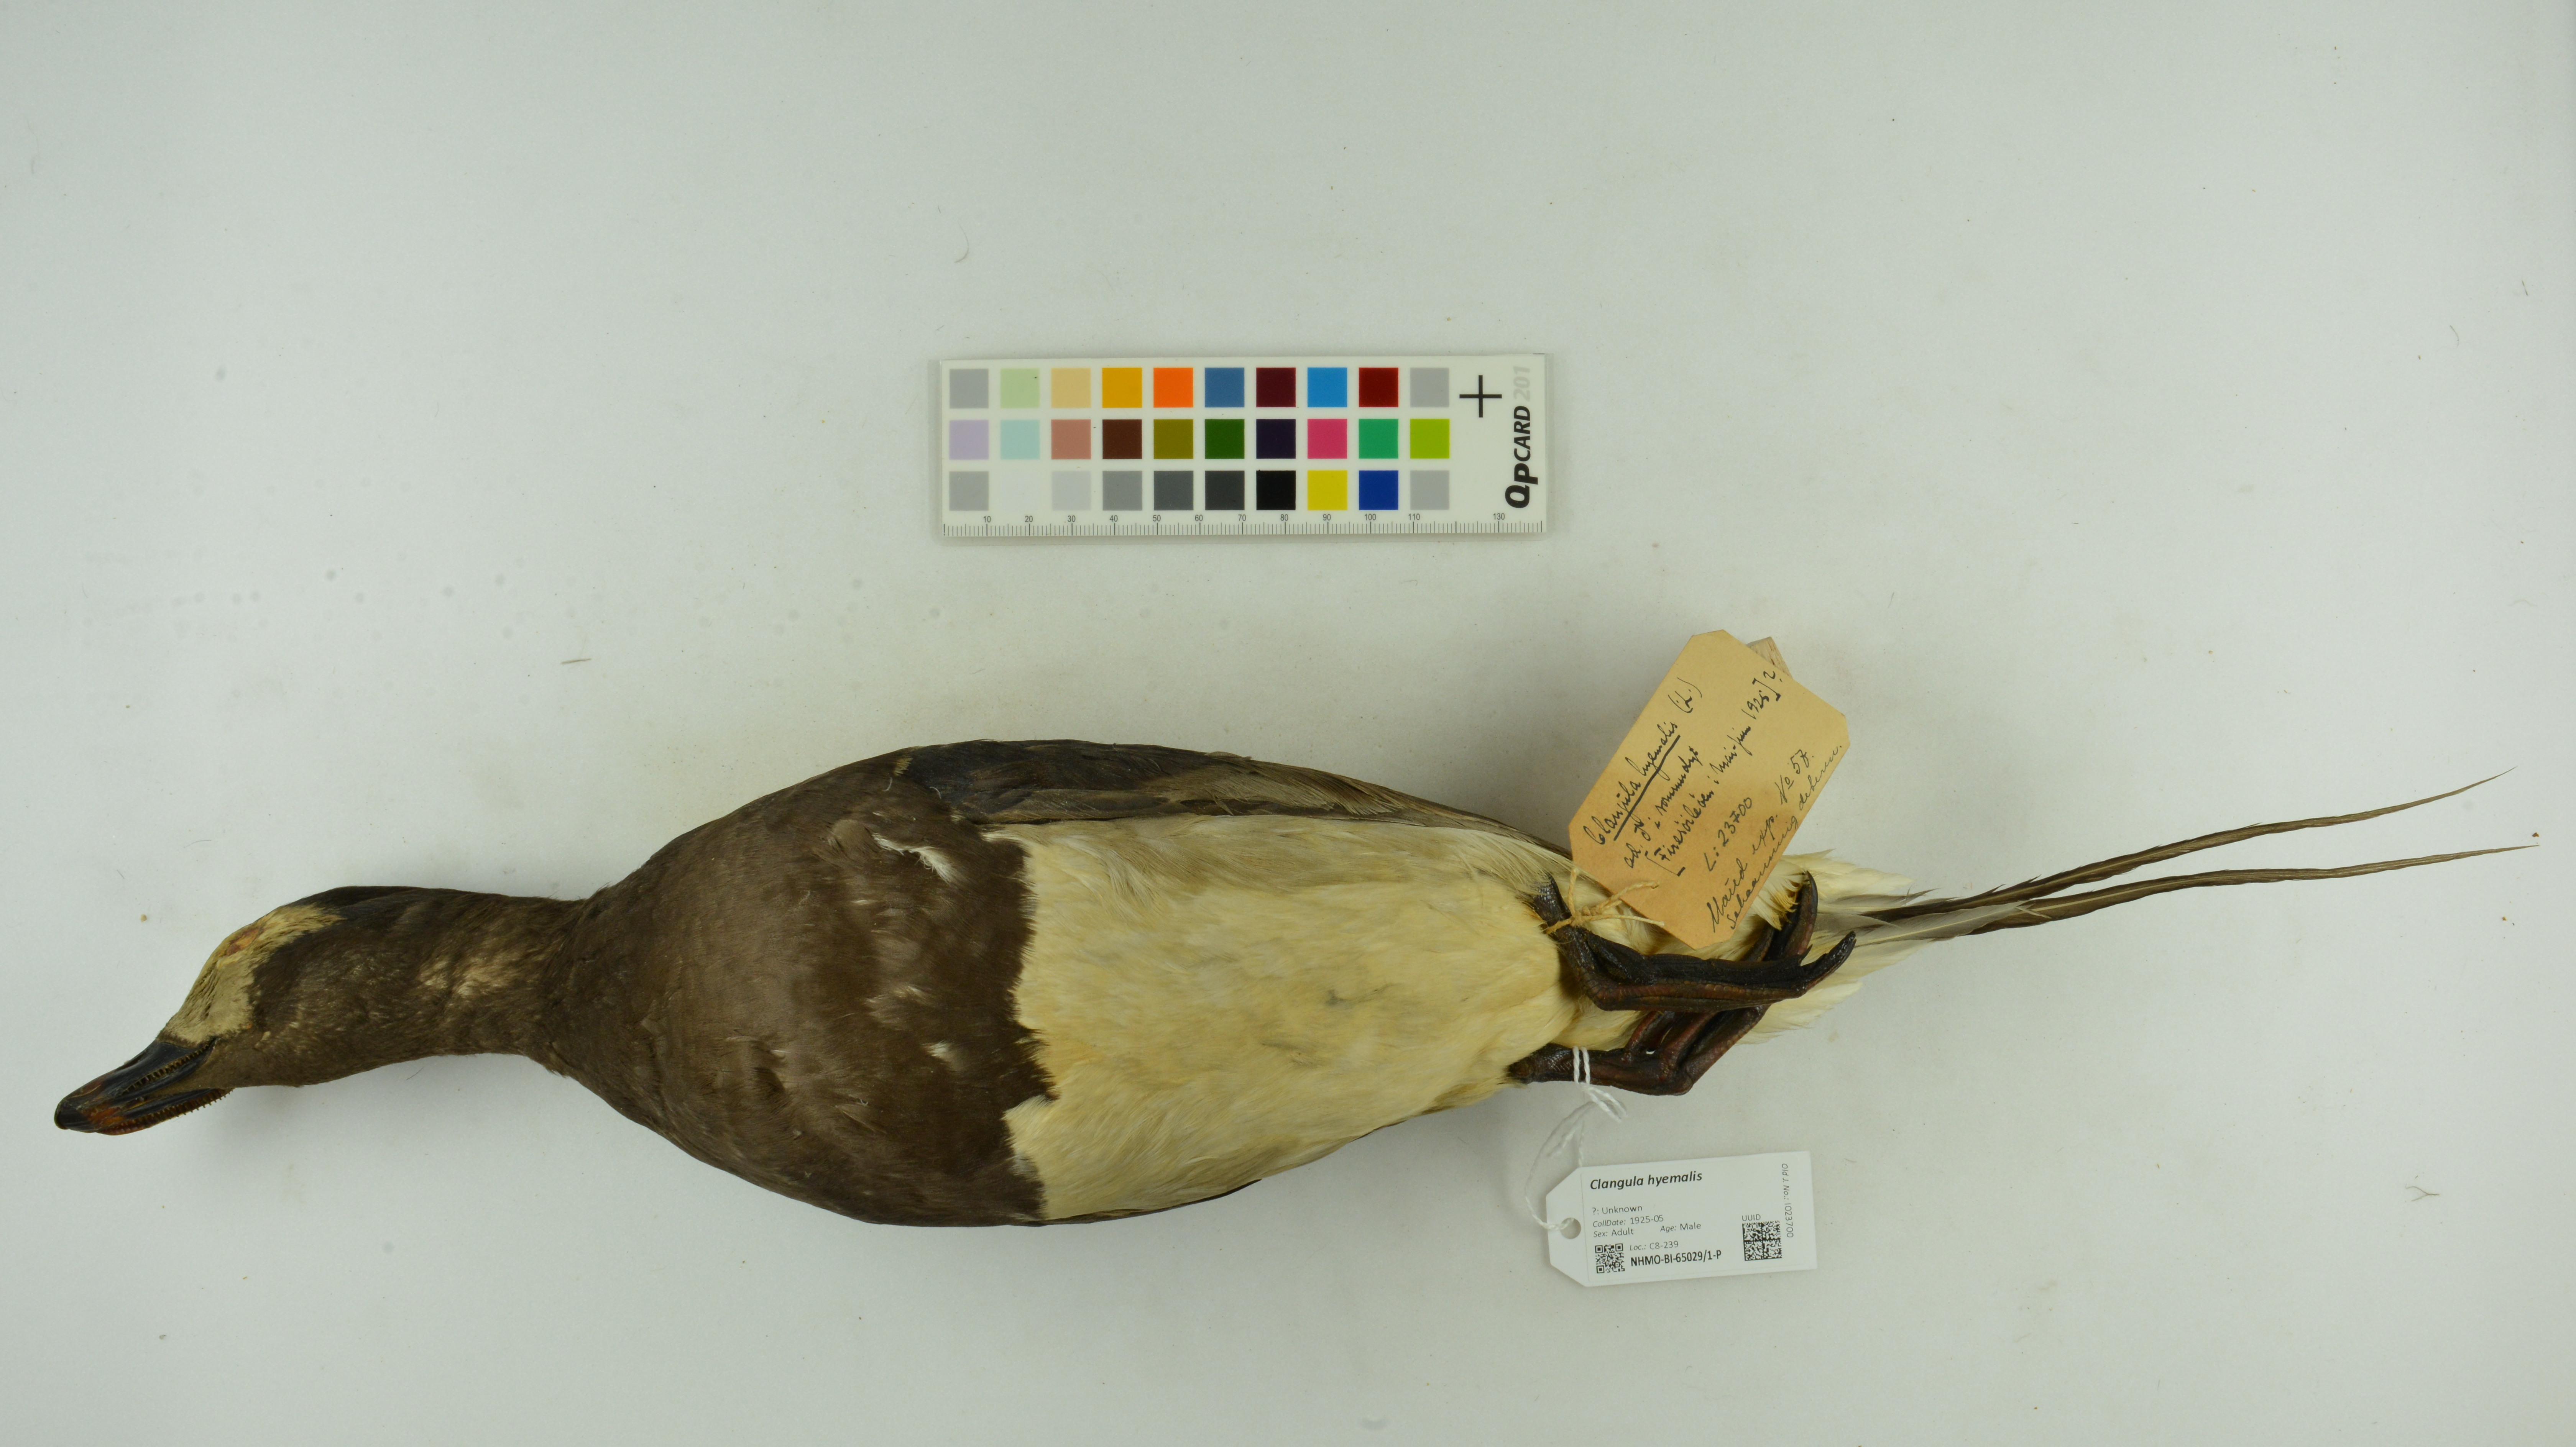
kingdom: Animalia
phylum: Chordata
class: Aves
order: Anseriformes
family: Anatidae
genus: Clangula
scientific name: Clangula hyemalis
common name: Long-tailed duck
